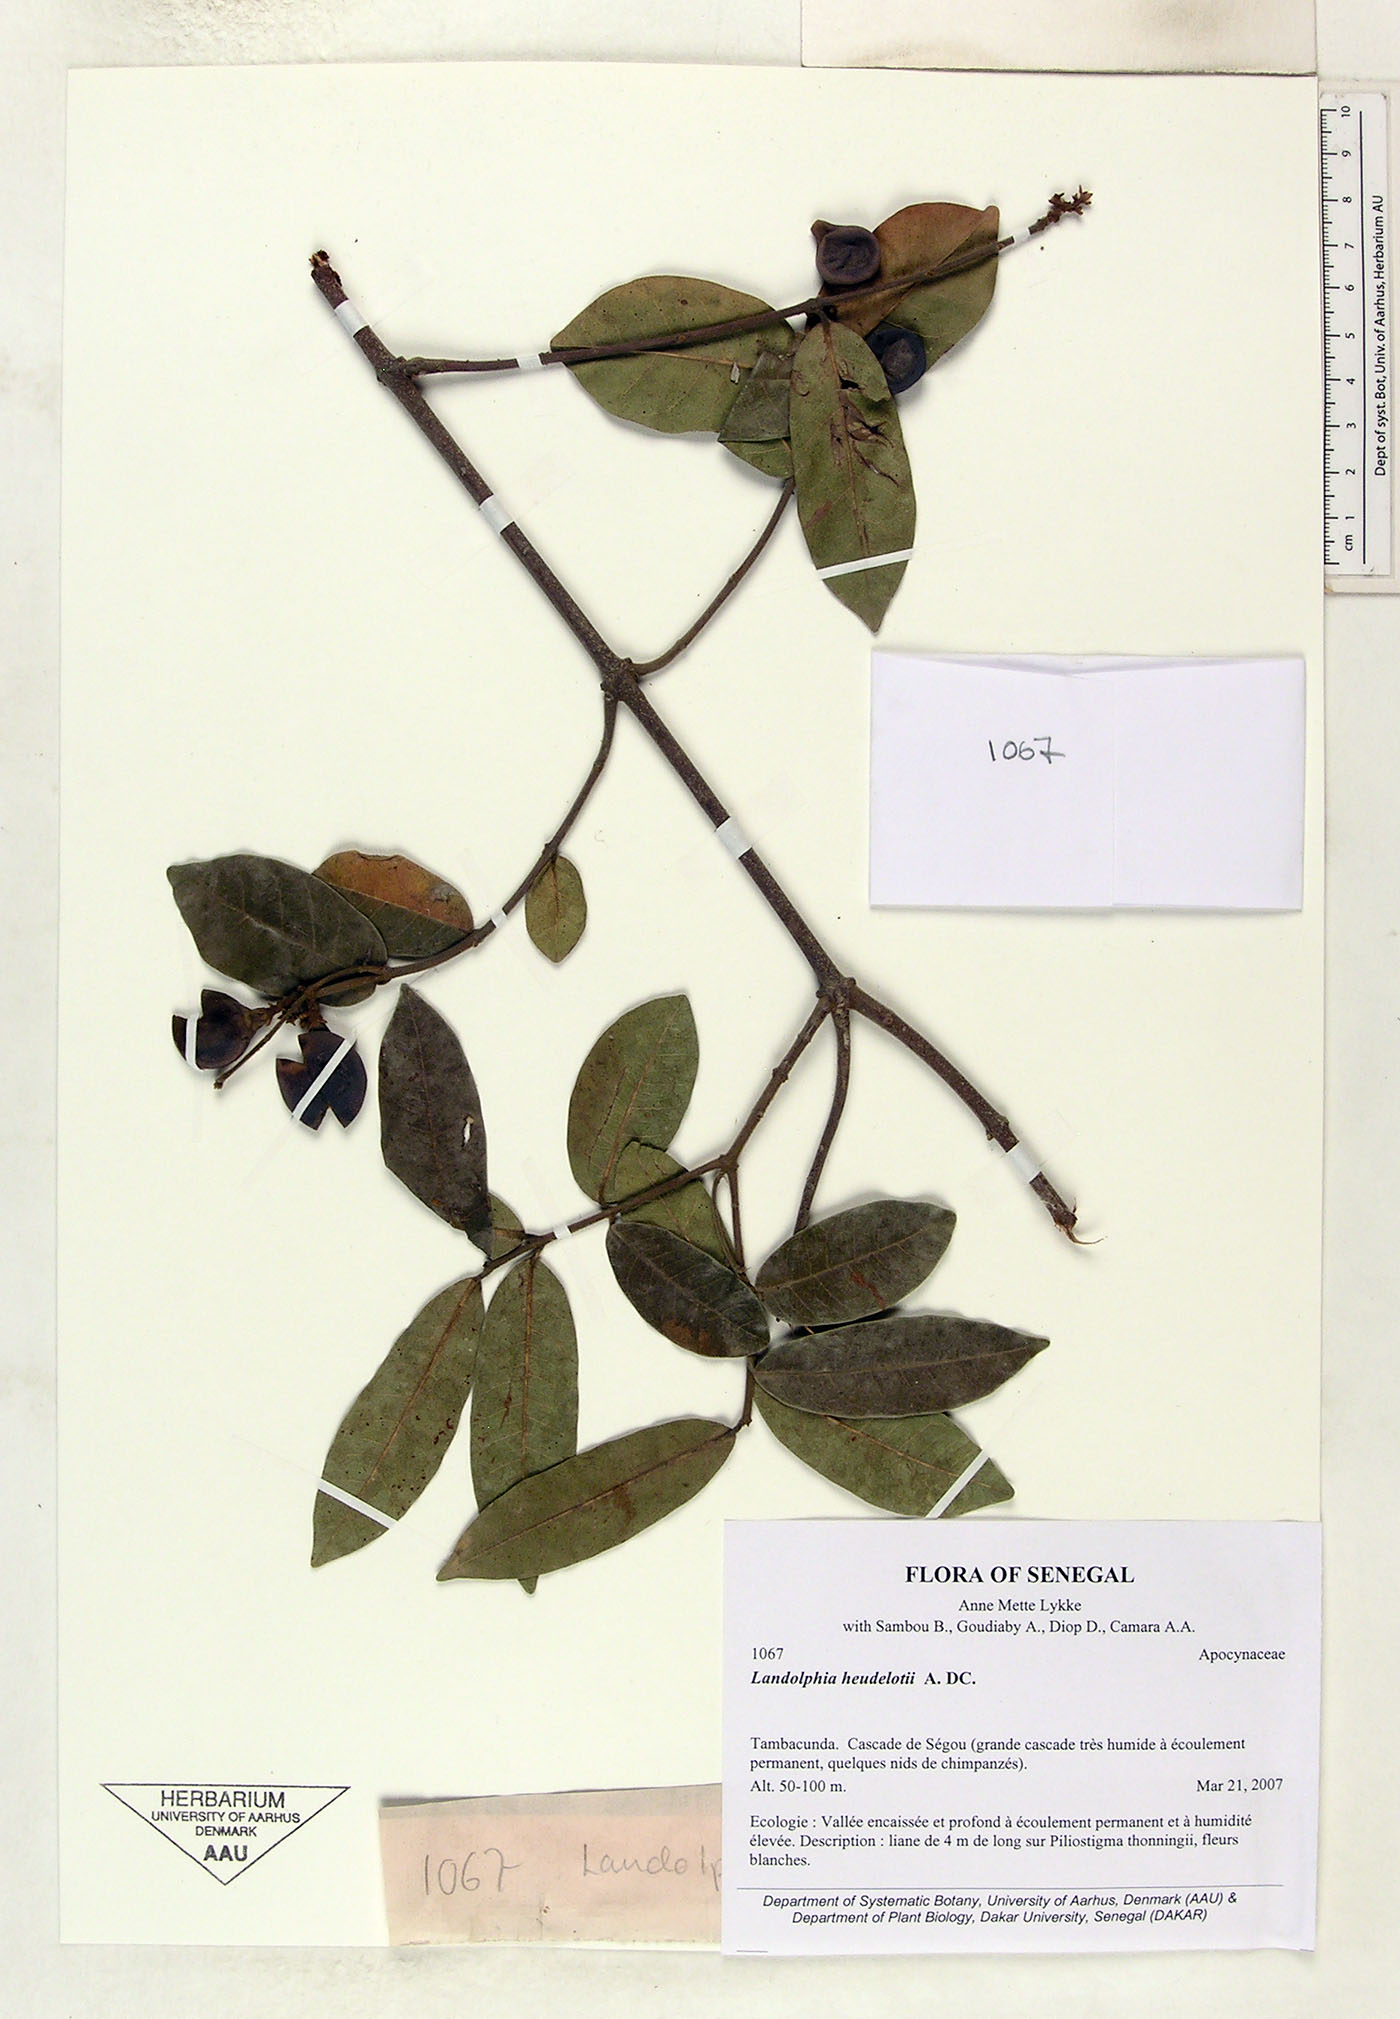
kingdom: Plantae
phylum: Tracheophyta
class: Magnoliopsida
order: Gentianales
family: Apocynaceae
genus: Landolphia
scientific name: Landolphia heudelotii
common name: Landolphia-rubber
